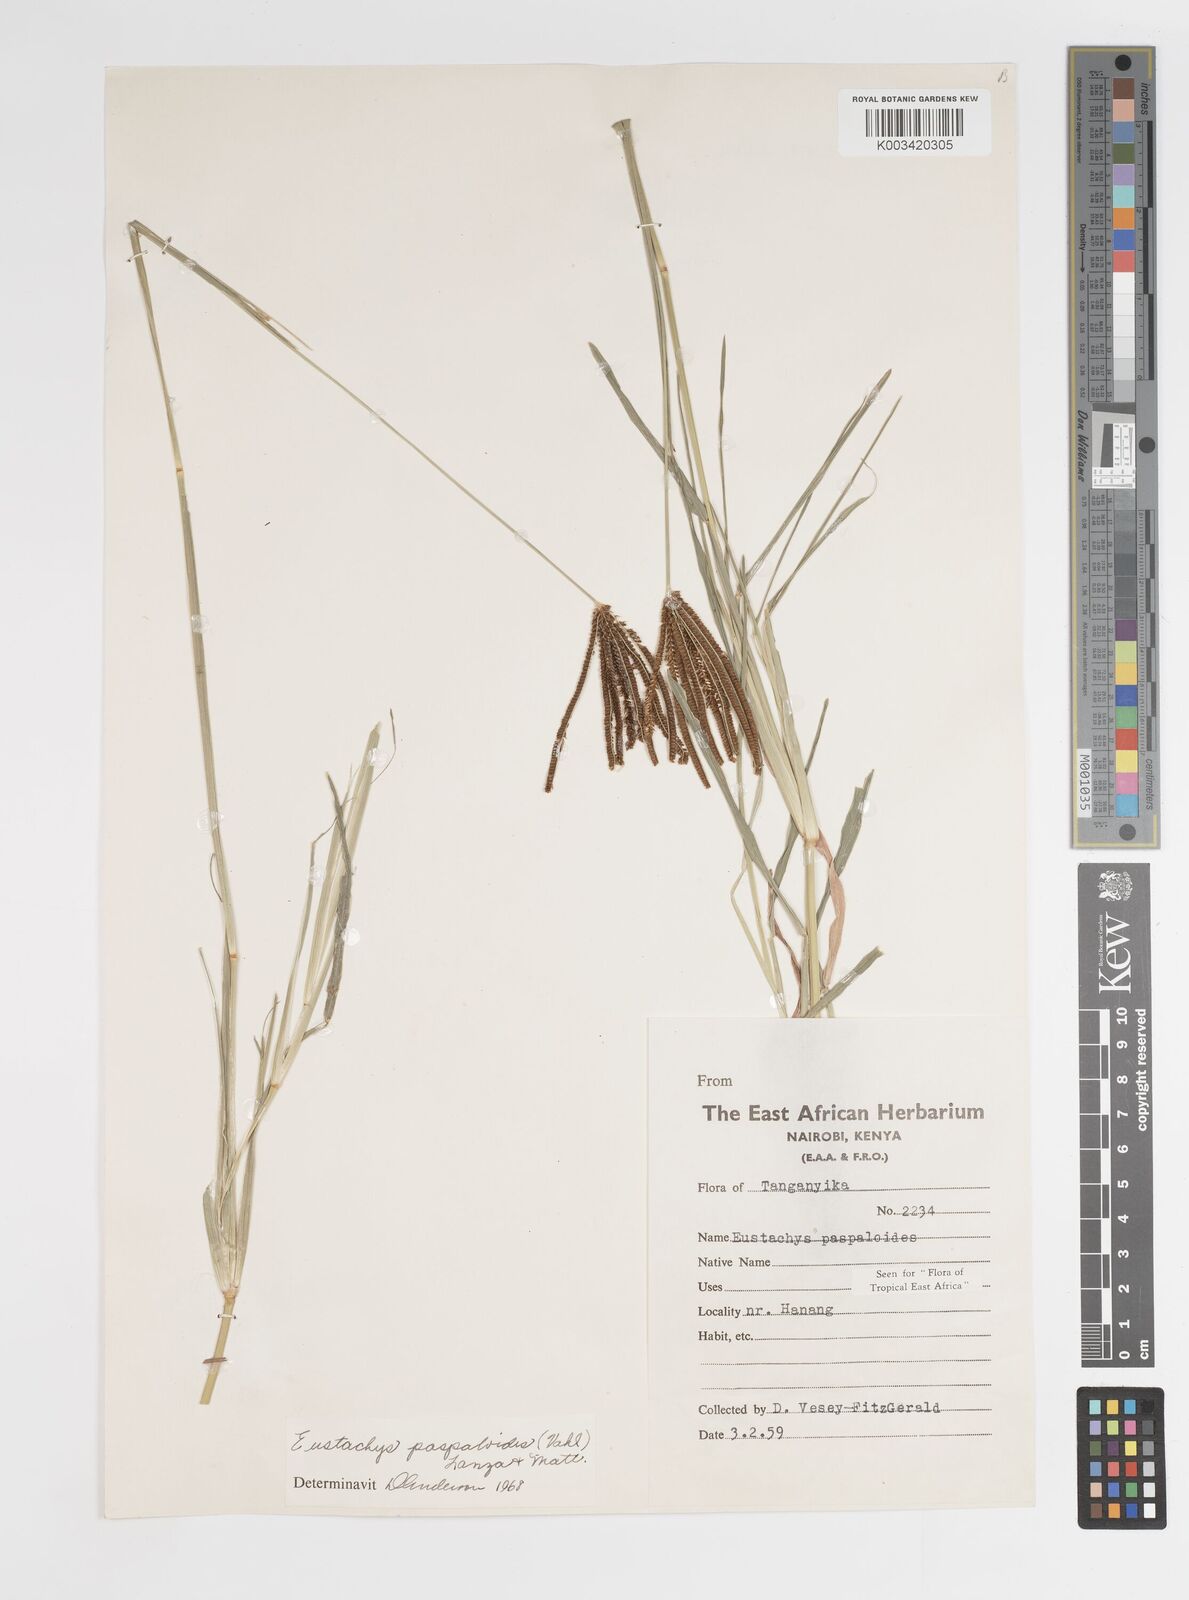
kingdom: Plantae
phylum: Tracheophyta
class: Liliopsida
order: Poales
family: Poaceae
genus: Eustachys
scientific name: Eustachys
